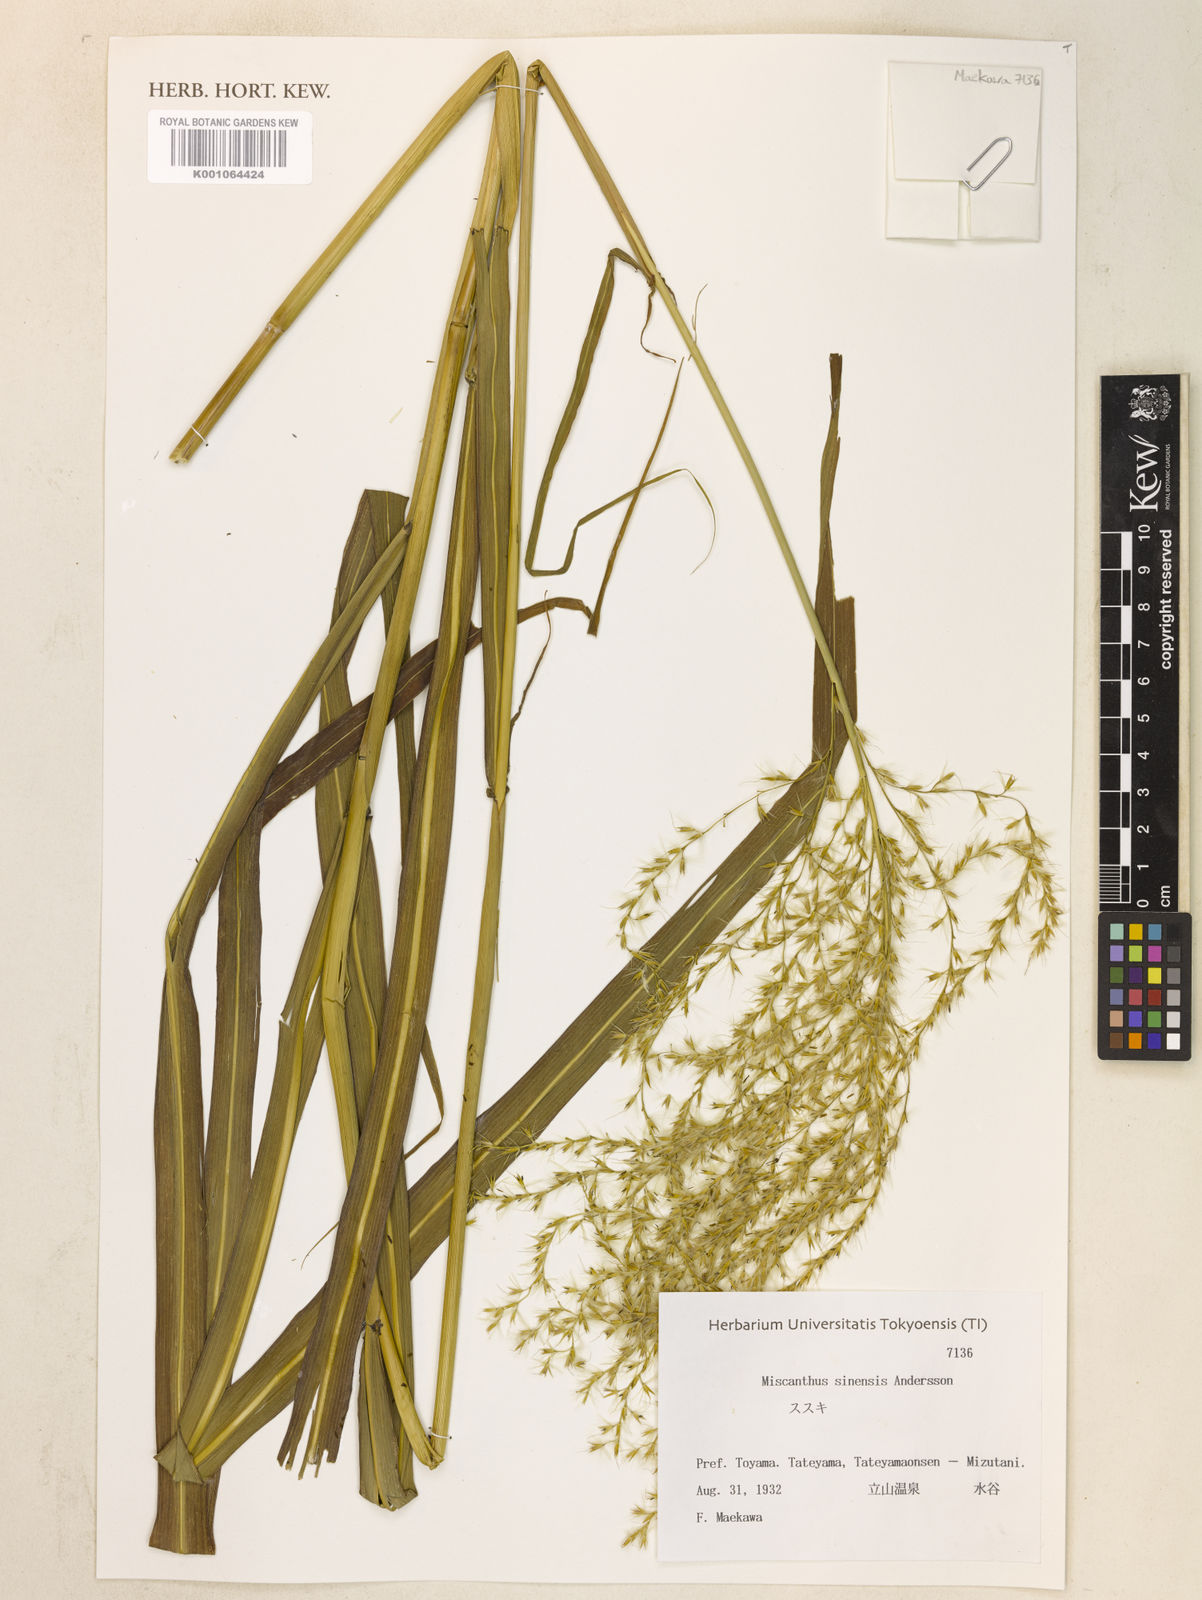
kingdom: Plantae
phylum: Tracheophyta
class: Liliopsida
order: Poales
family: Poaceae
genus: Miscanthus
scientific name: Miscanthus sinensis
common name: Chinese silvergrass
